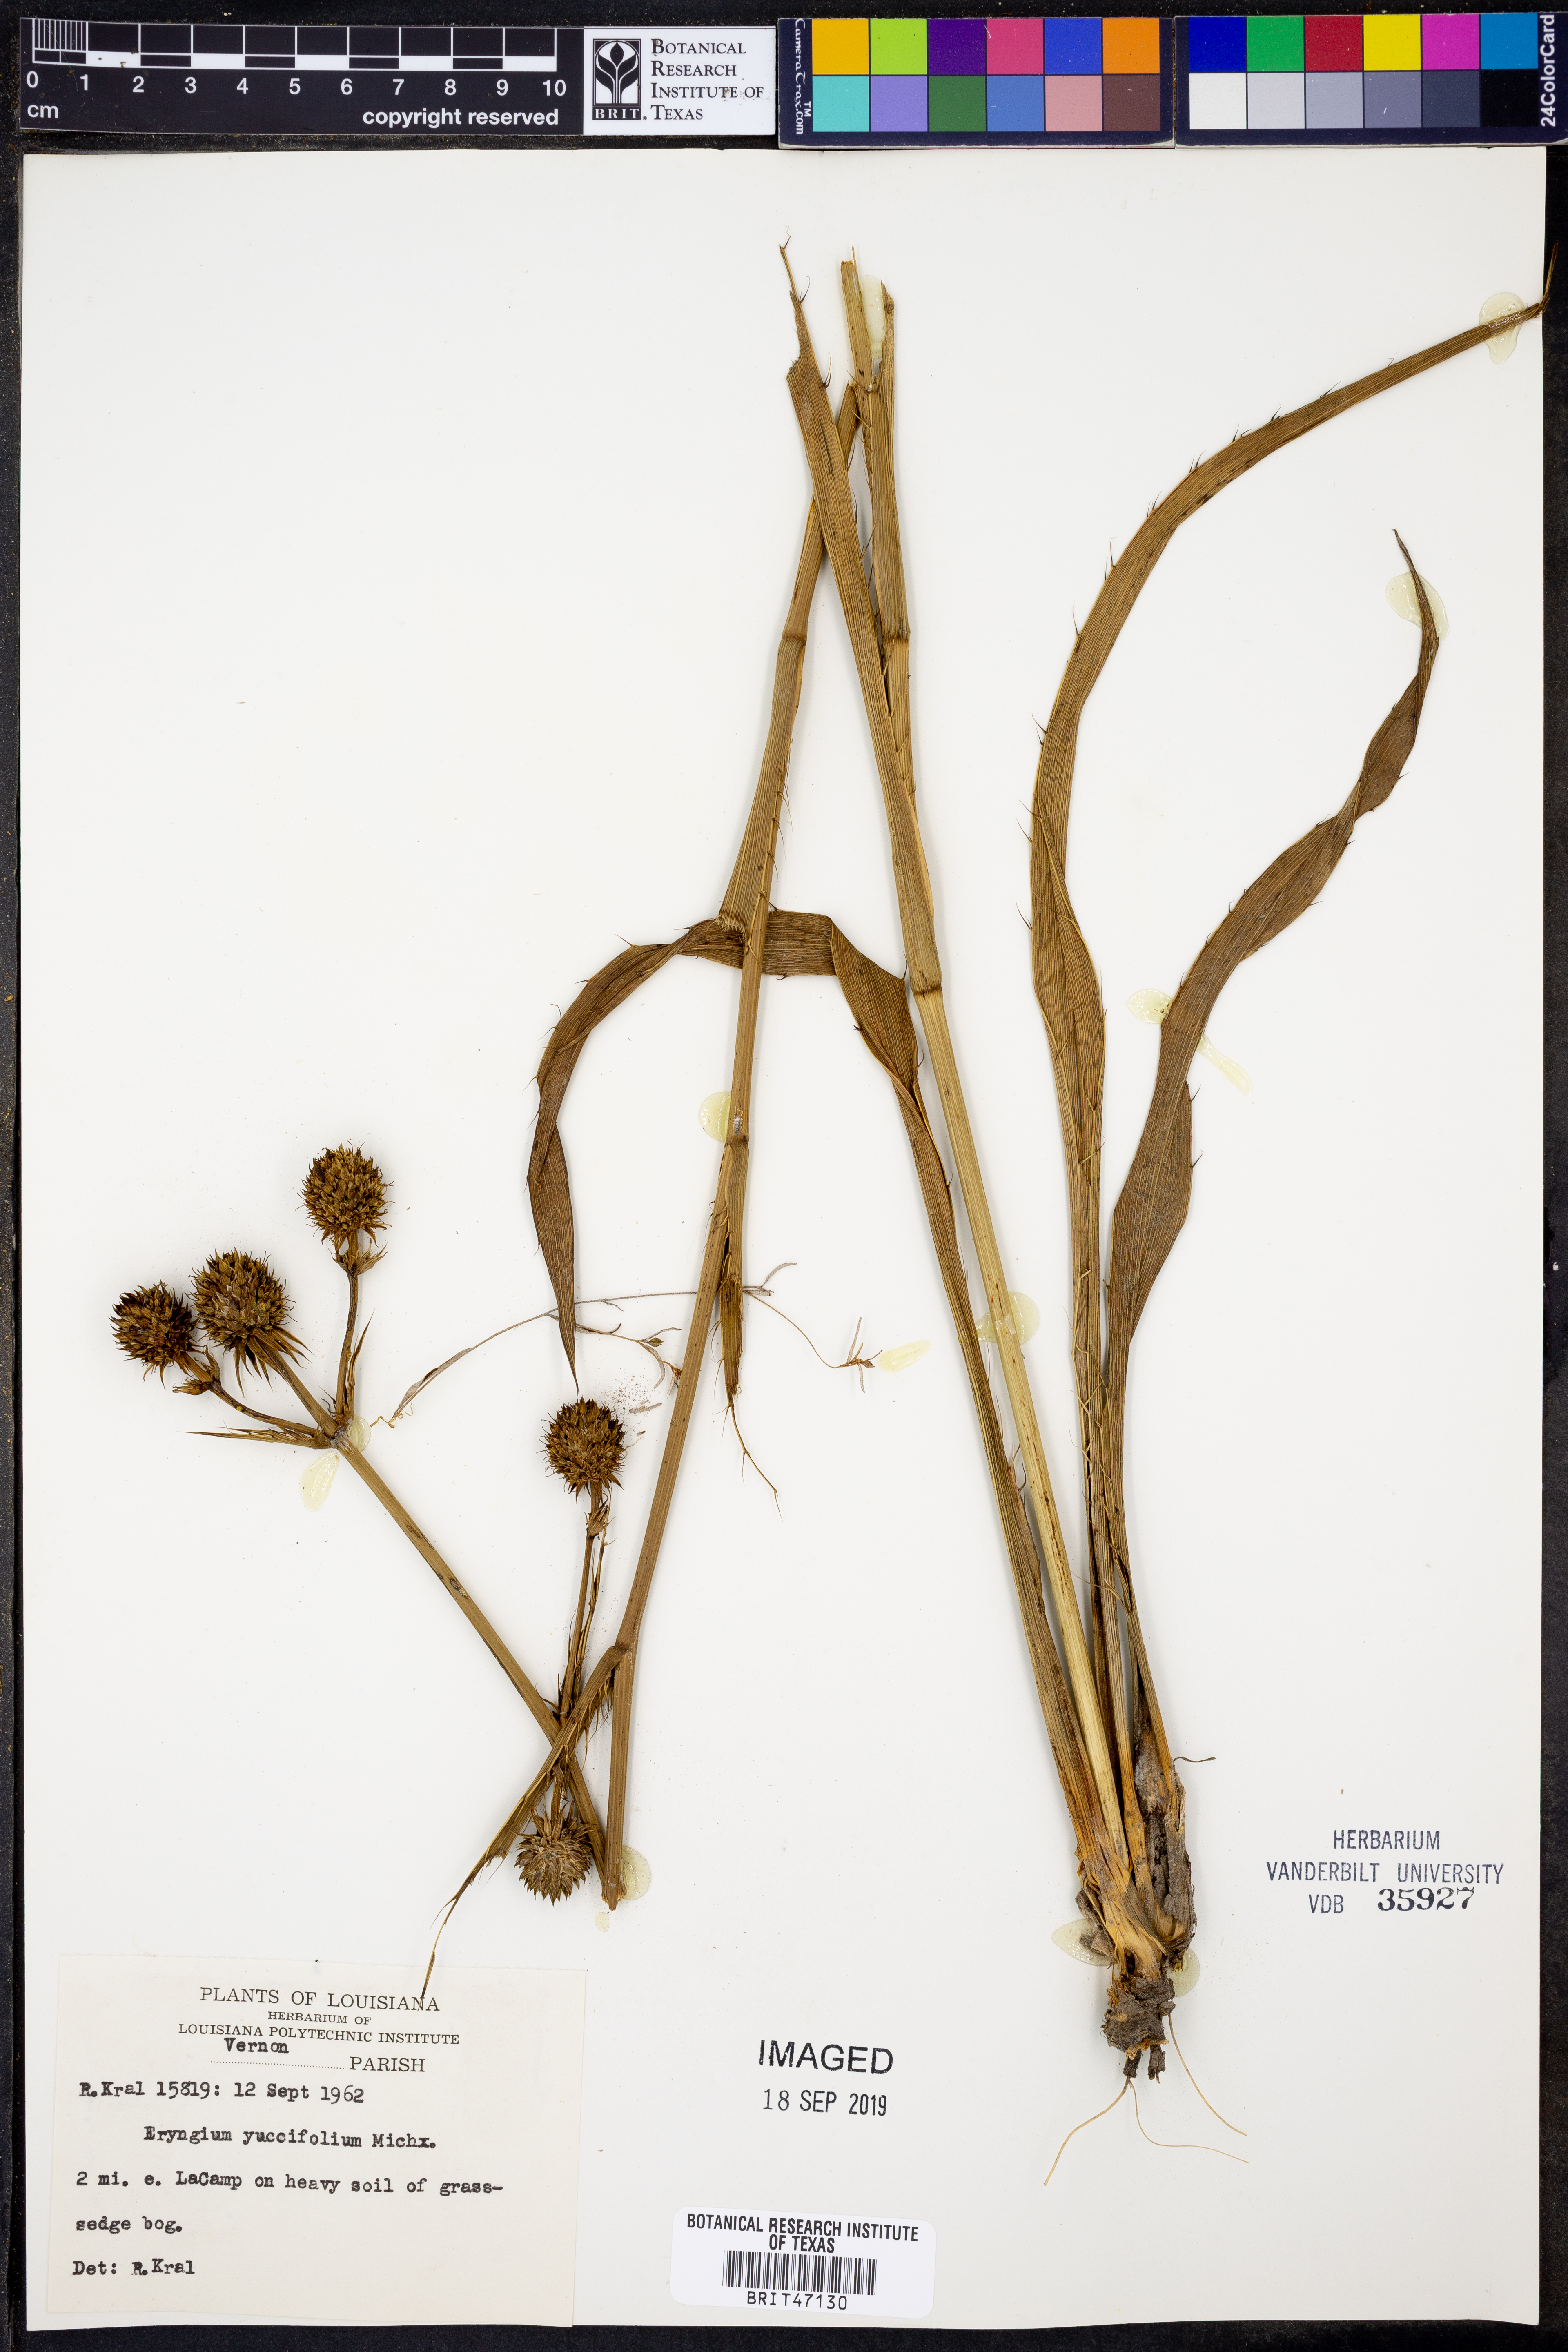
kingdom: Plantae
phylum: Tracheophyta
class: Magnoliopsida
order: Apiales
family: Apiaceae
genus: Eryngium
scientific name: Eryngium yuccifolium
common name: Button eryngo
